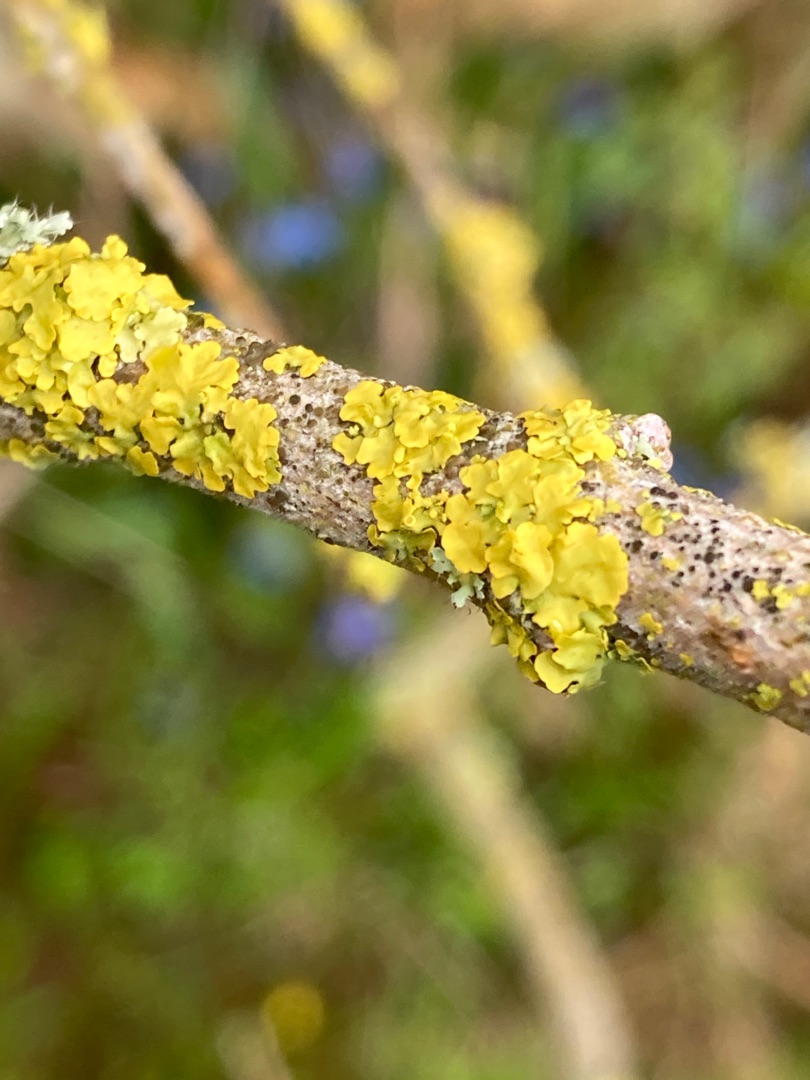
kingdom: Fungi
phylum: Ascomycota
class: Lecanoromycetes
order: Teloschistales
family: Teloschistaceae
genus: Xanthoria
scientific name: Xanthoria parietina
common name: Almindelig væggelav
